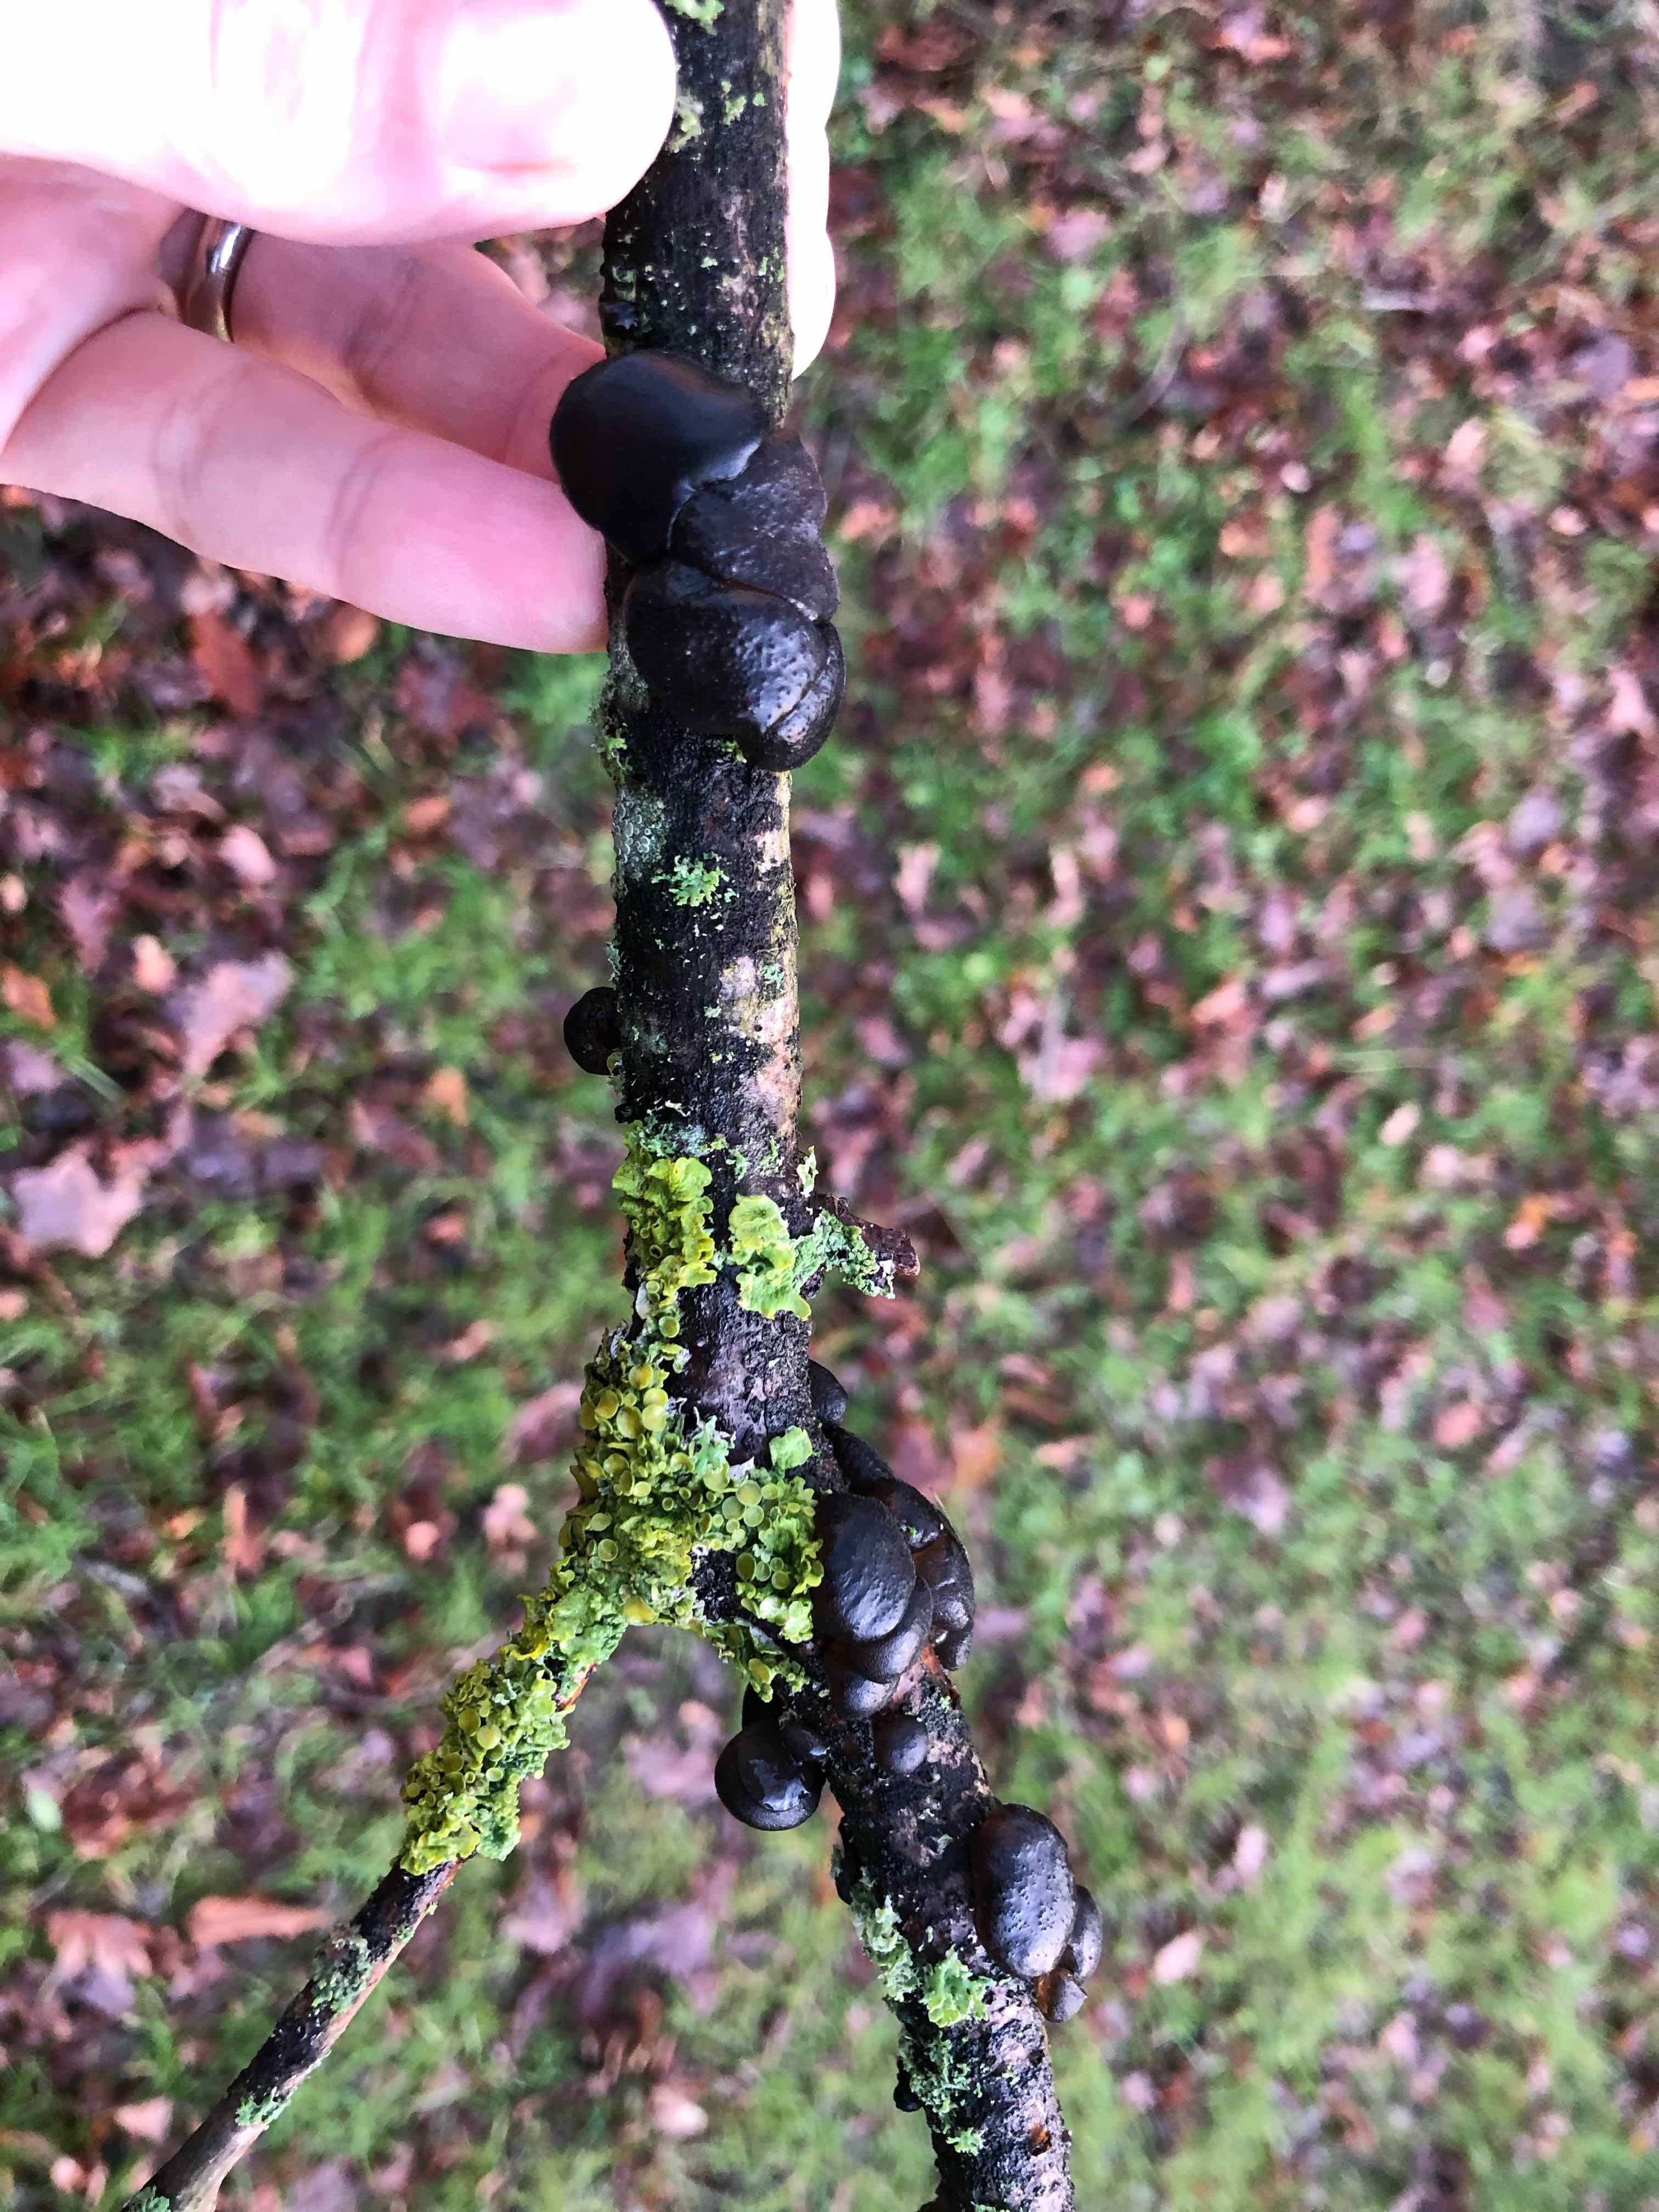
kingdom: Fungi
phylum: Basidiomycota
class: Agaricomycetes
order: Auriculariales
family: Auriculariaceae
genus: Exidia
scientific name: Exidia glandulosa
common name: ege-bævretop
